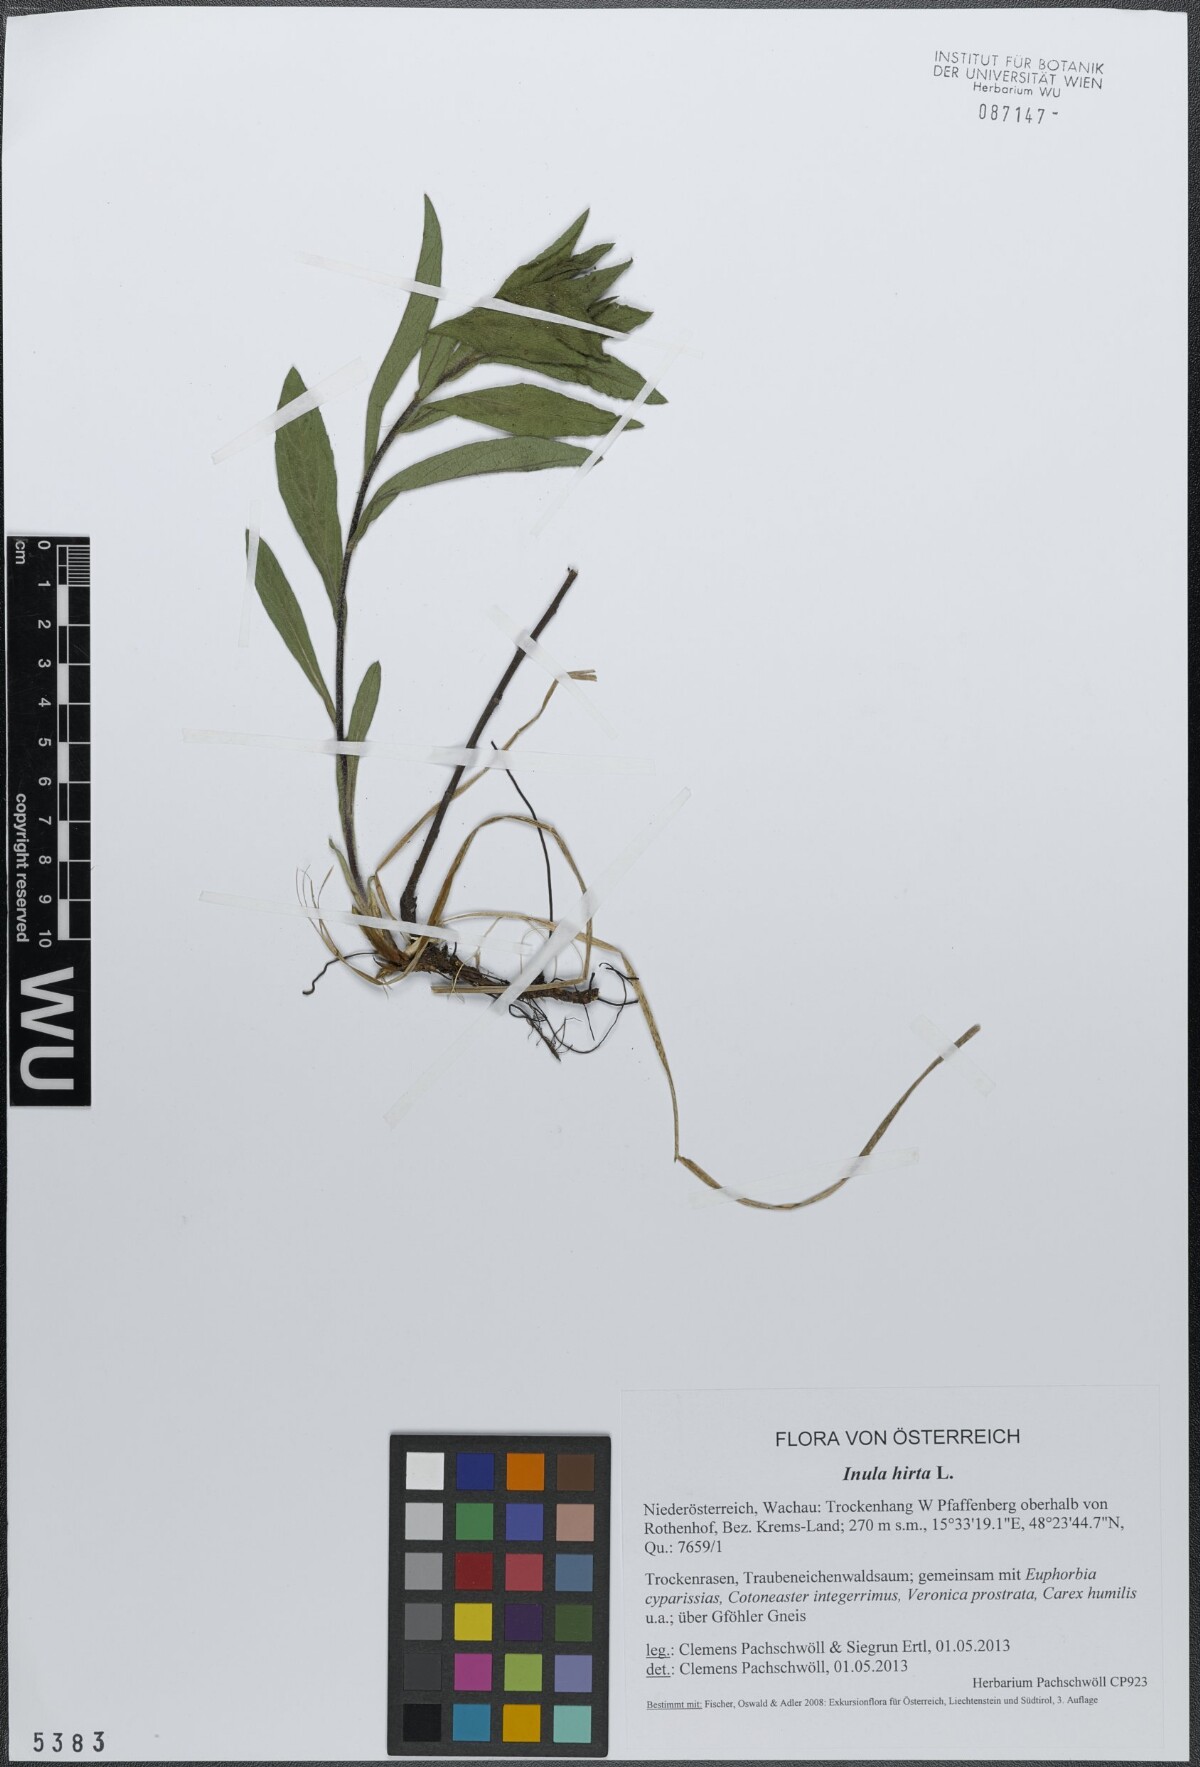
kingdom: Plantae
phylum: Tracheophyta
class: Magnoliopsida
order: Asterales
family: Asteraceae
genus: Pentanema
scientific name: Pentanema hirtum
